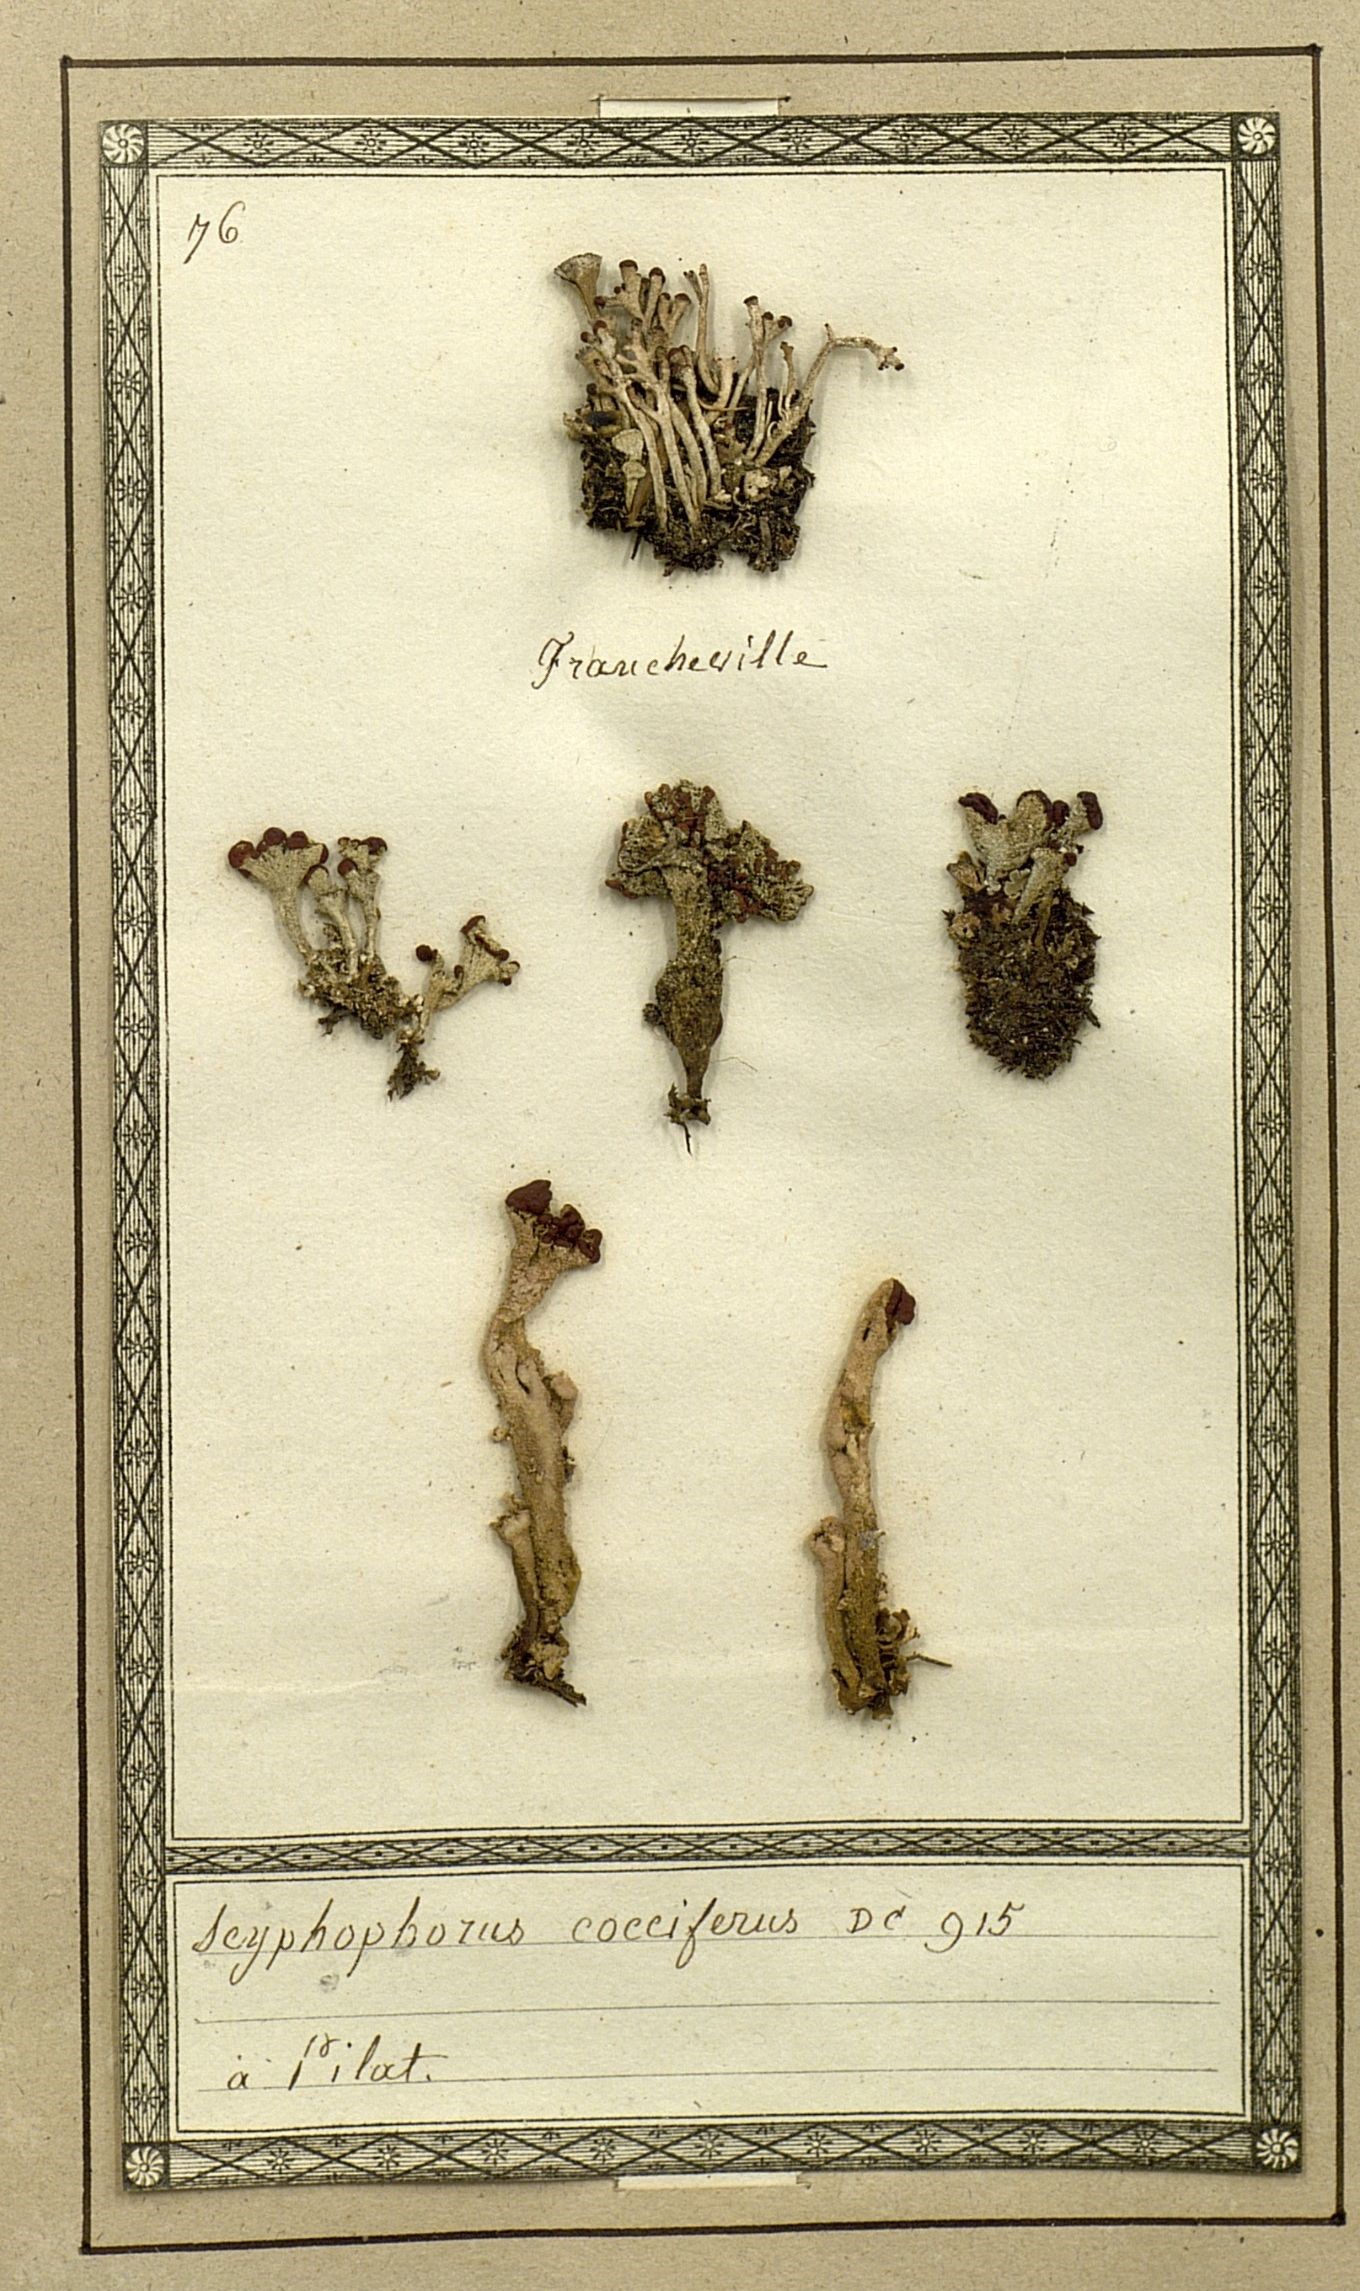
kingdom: Fungi
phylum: Ascomycota
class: Lecanoromycetes
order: Lecanorales
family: Cladoniaceae
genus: Cladonia
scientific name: Cladonia coccifera
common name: Scarlet-cup lichen
